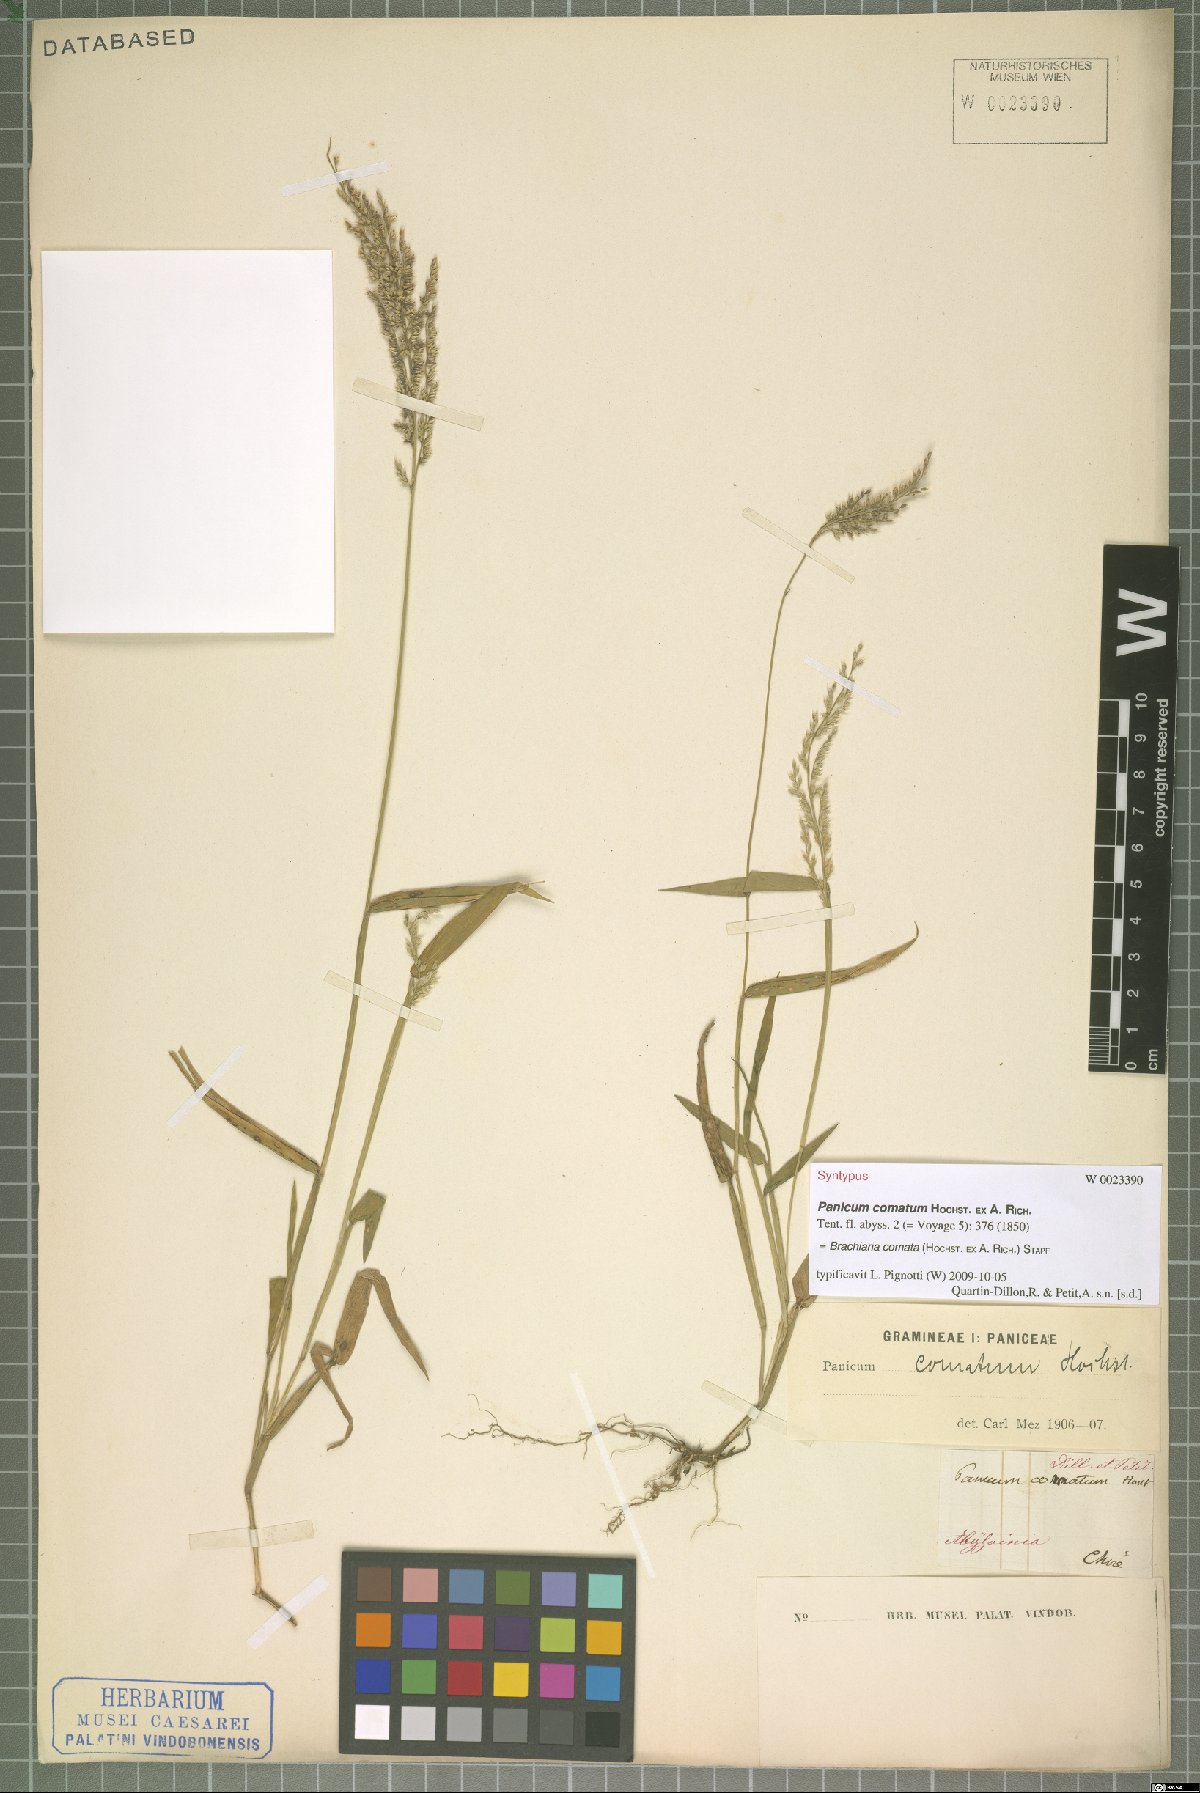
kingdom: Plantae
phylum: Tracheophyta
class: Liliopsida
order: Poales
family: Poaceae
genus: Urochloa
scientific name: Urochloa comata
